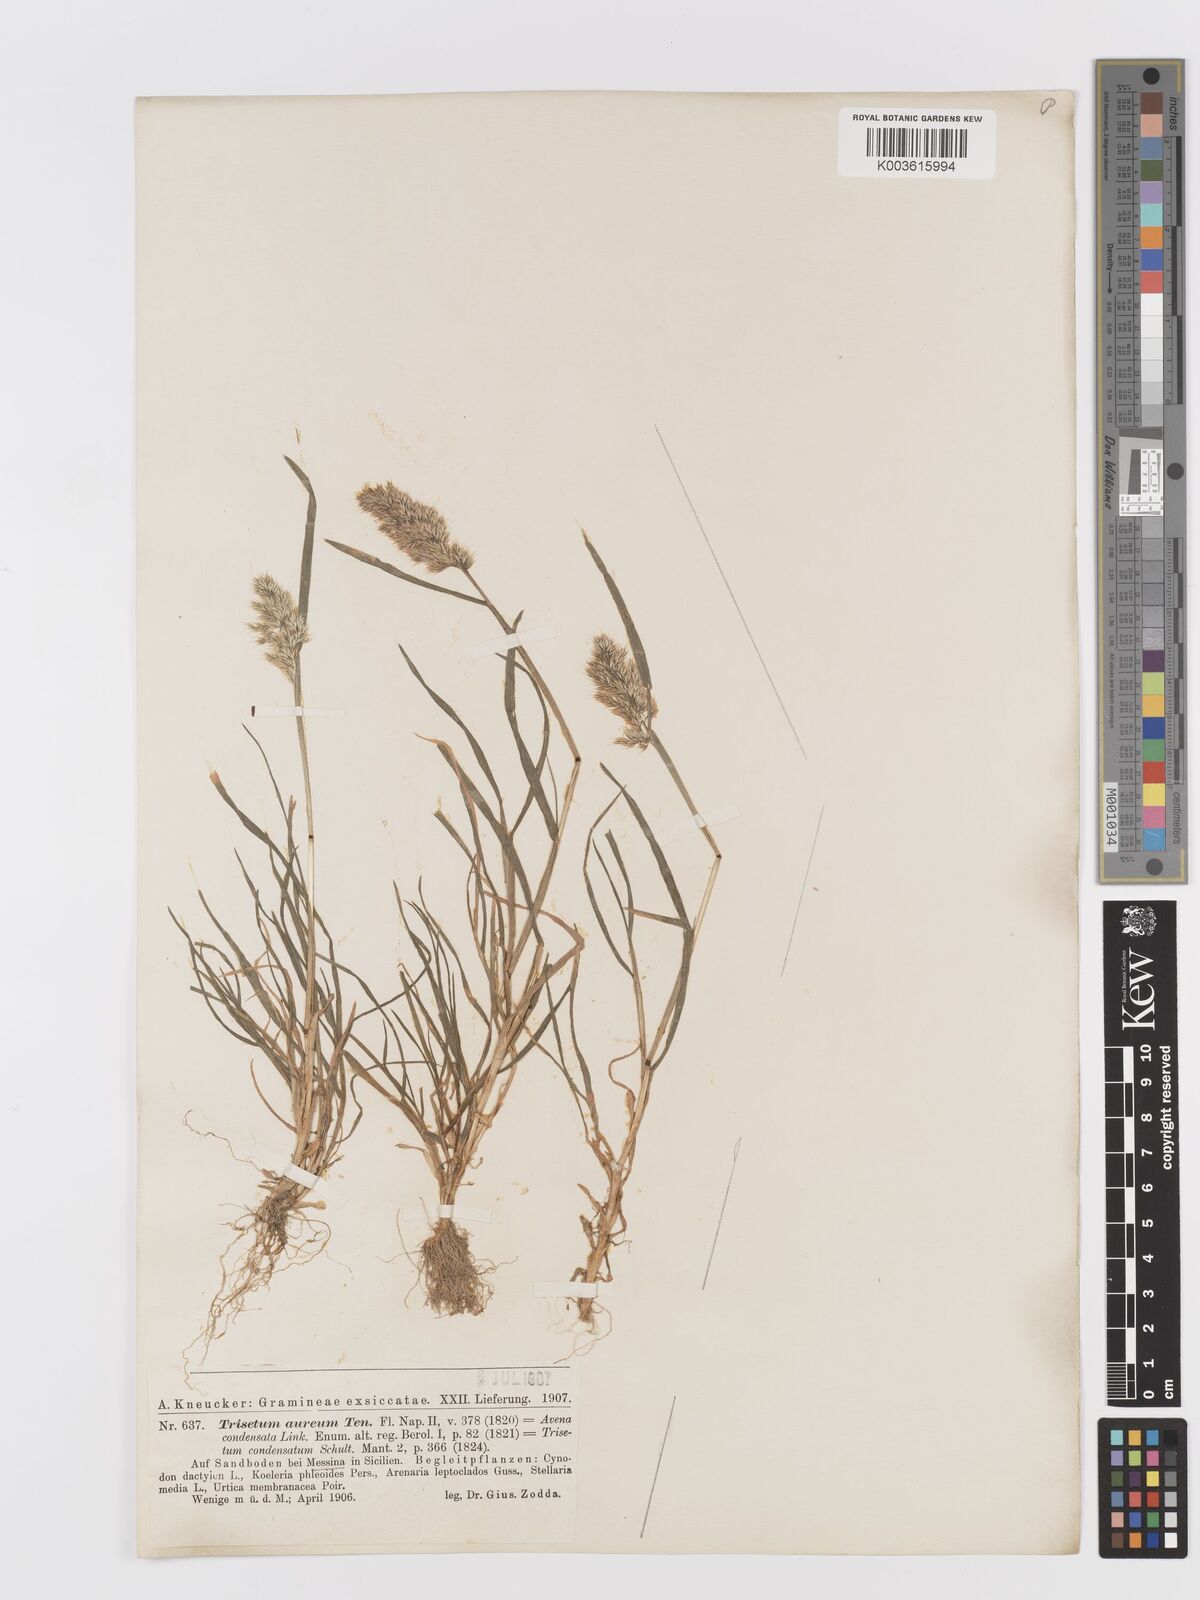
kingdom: Plantae
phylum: Tracheophyta
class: Liliopsida
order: Poales
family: Poaceae
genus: Trisetaria
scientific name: Trisetaria aurea
